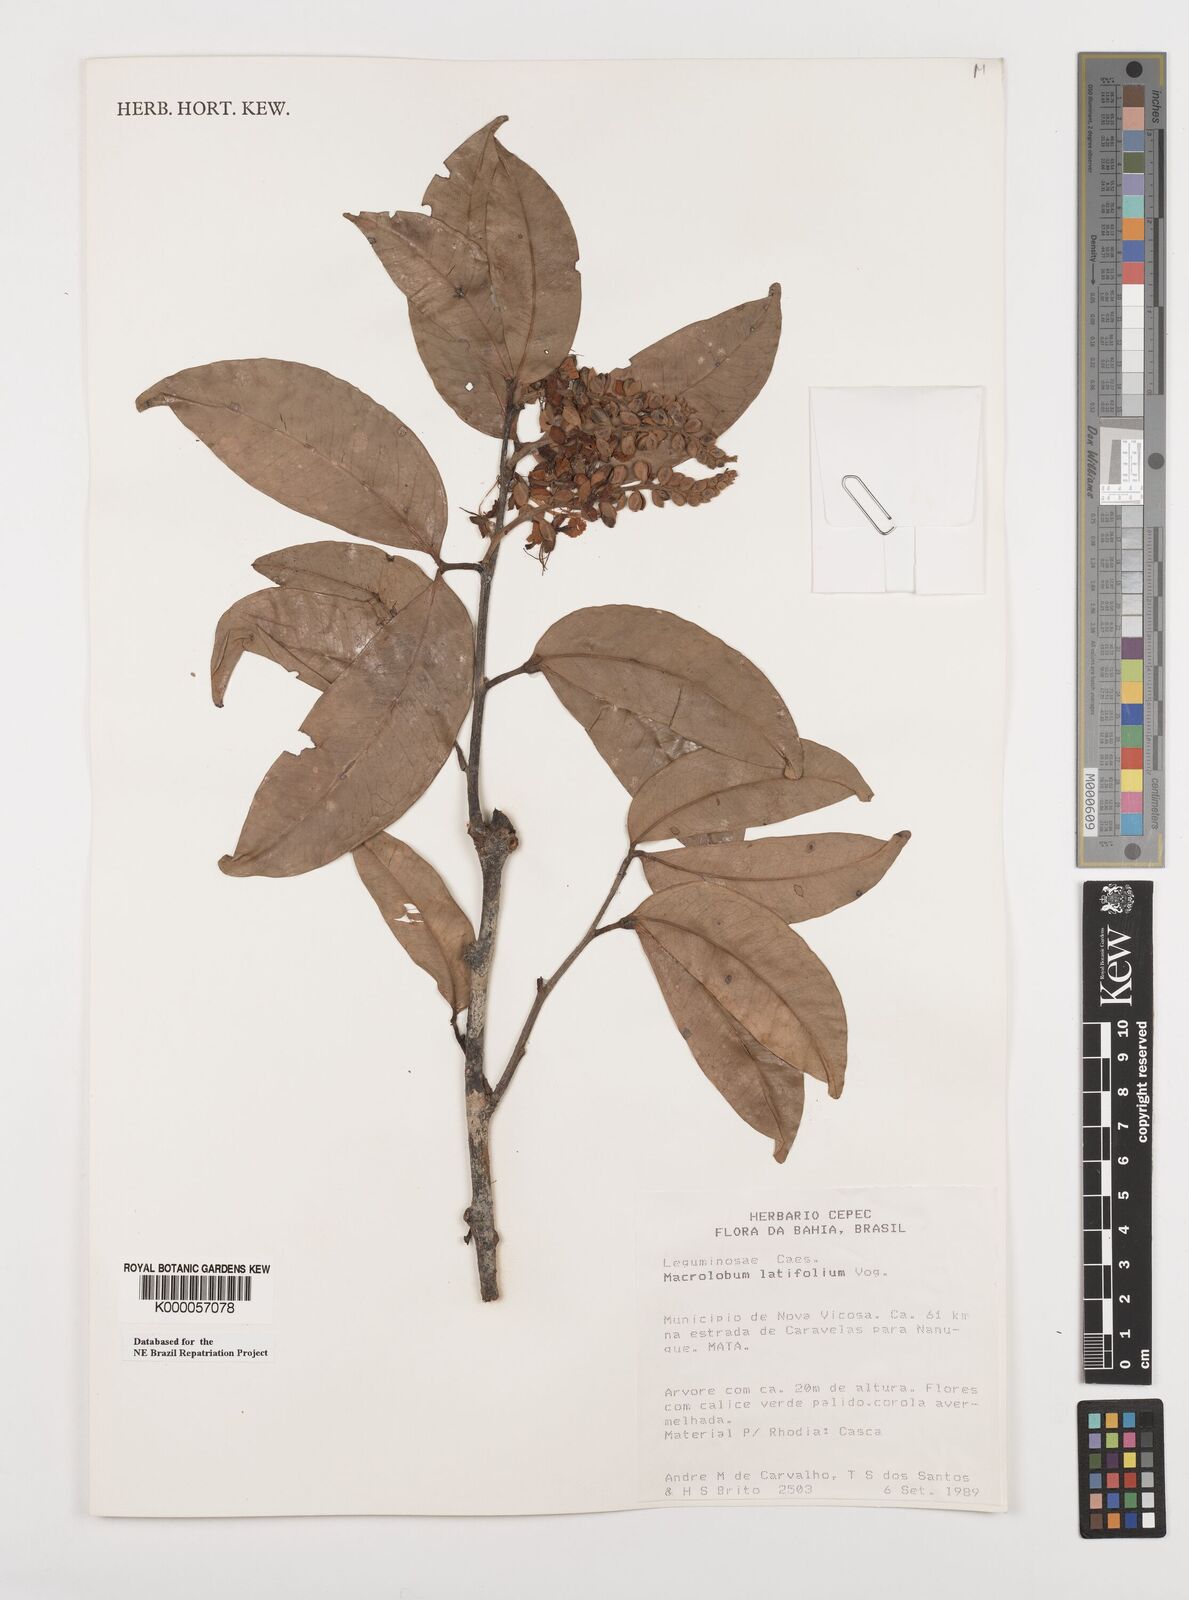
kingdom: Plantae
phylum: Tracheophyta
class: Magnoliopsida
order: Fabales
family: Fabaceae
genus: Macrolobium
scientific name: Macrolobium latifolium
